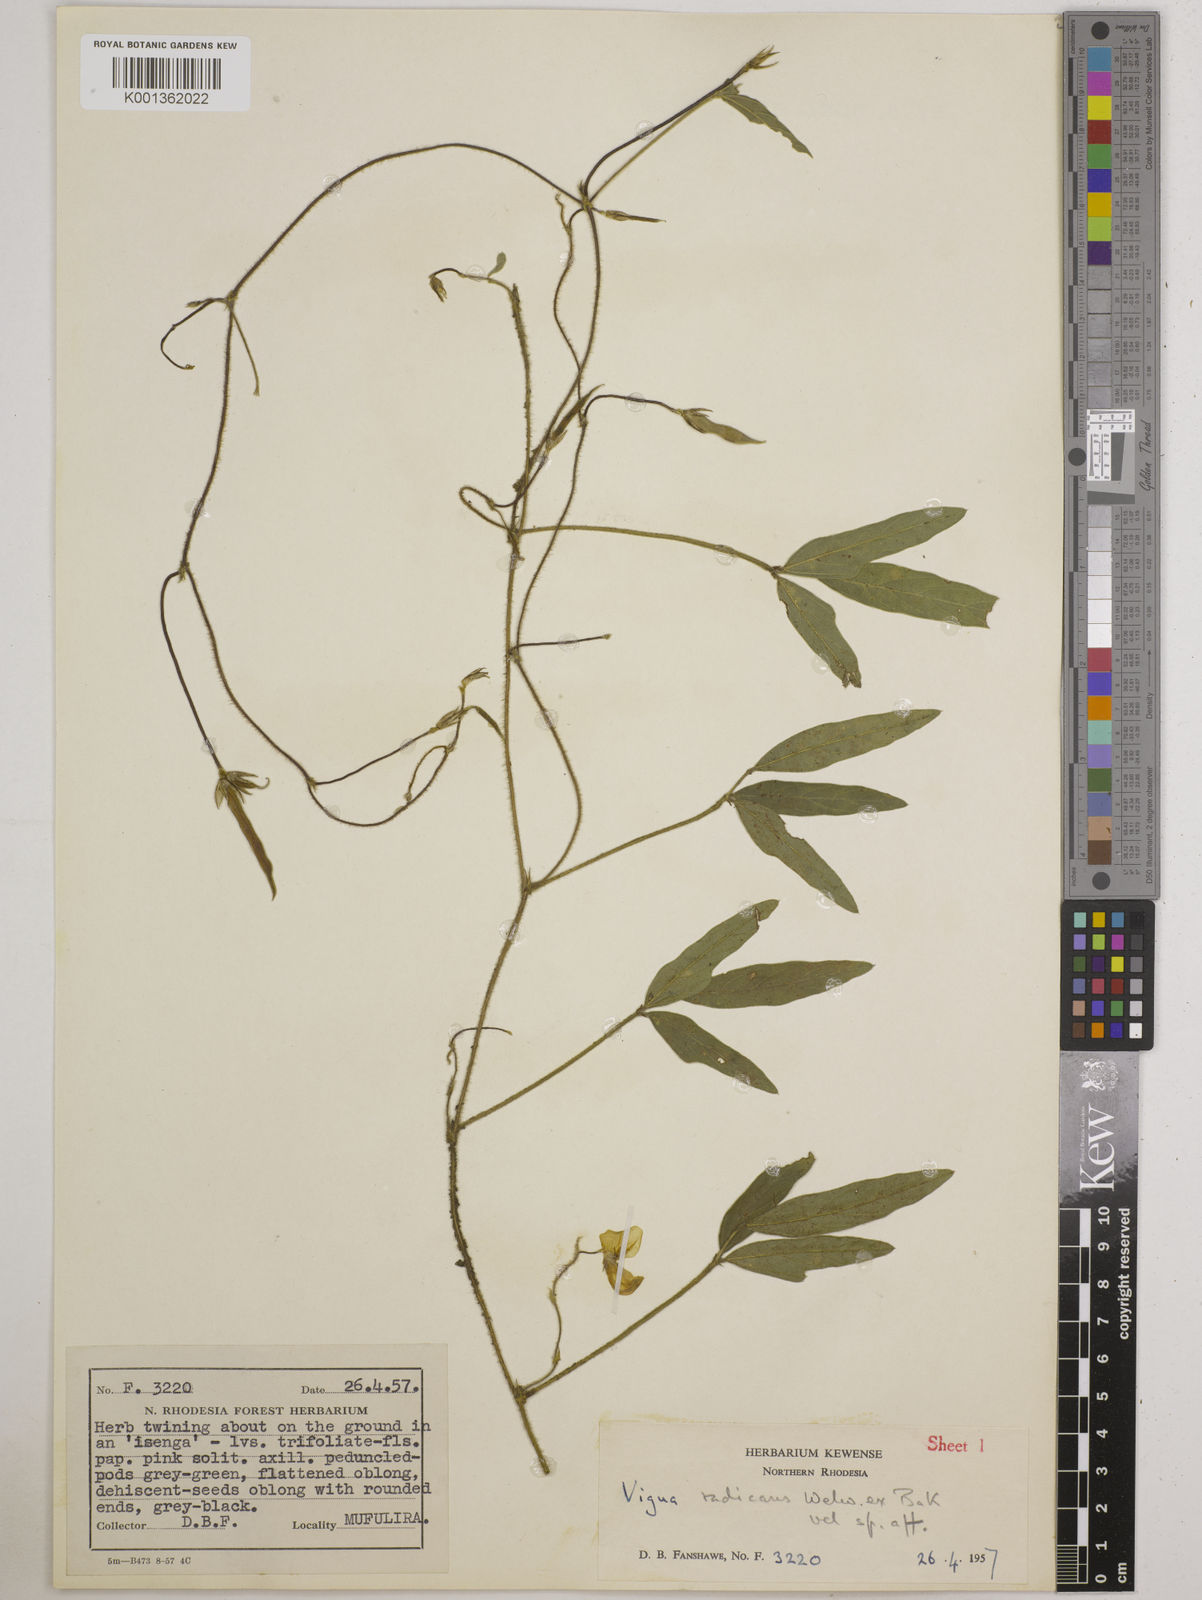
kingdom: Plantae
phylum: Tracheophyta
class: Magnoliopsida
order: Fabales
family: Fabaceae
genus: Vigna
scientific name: Vigna radicans
